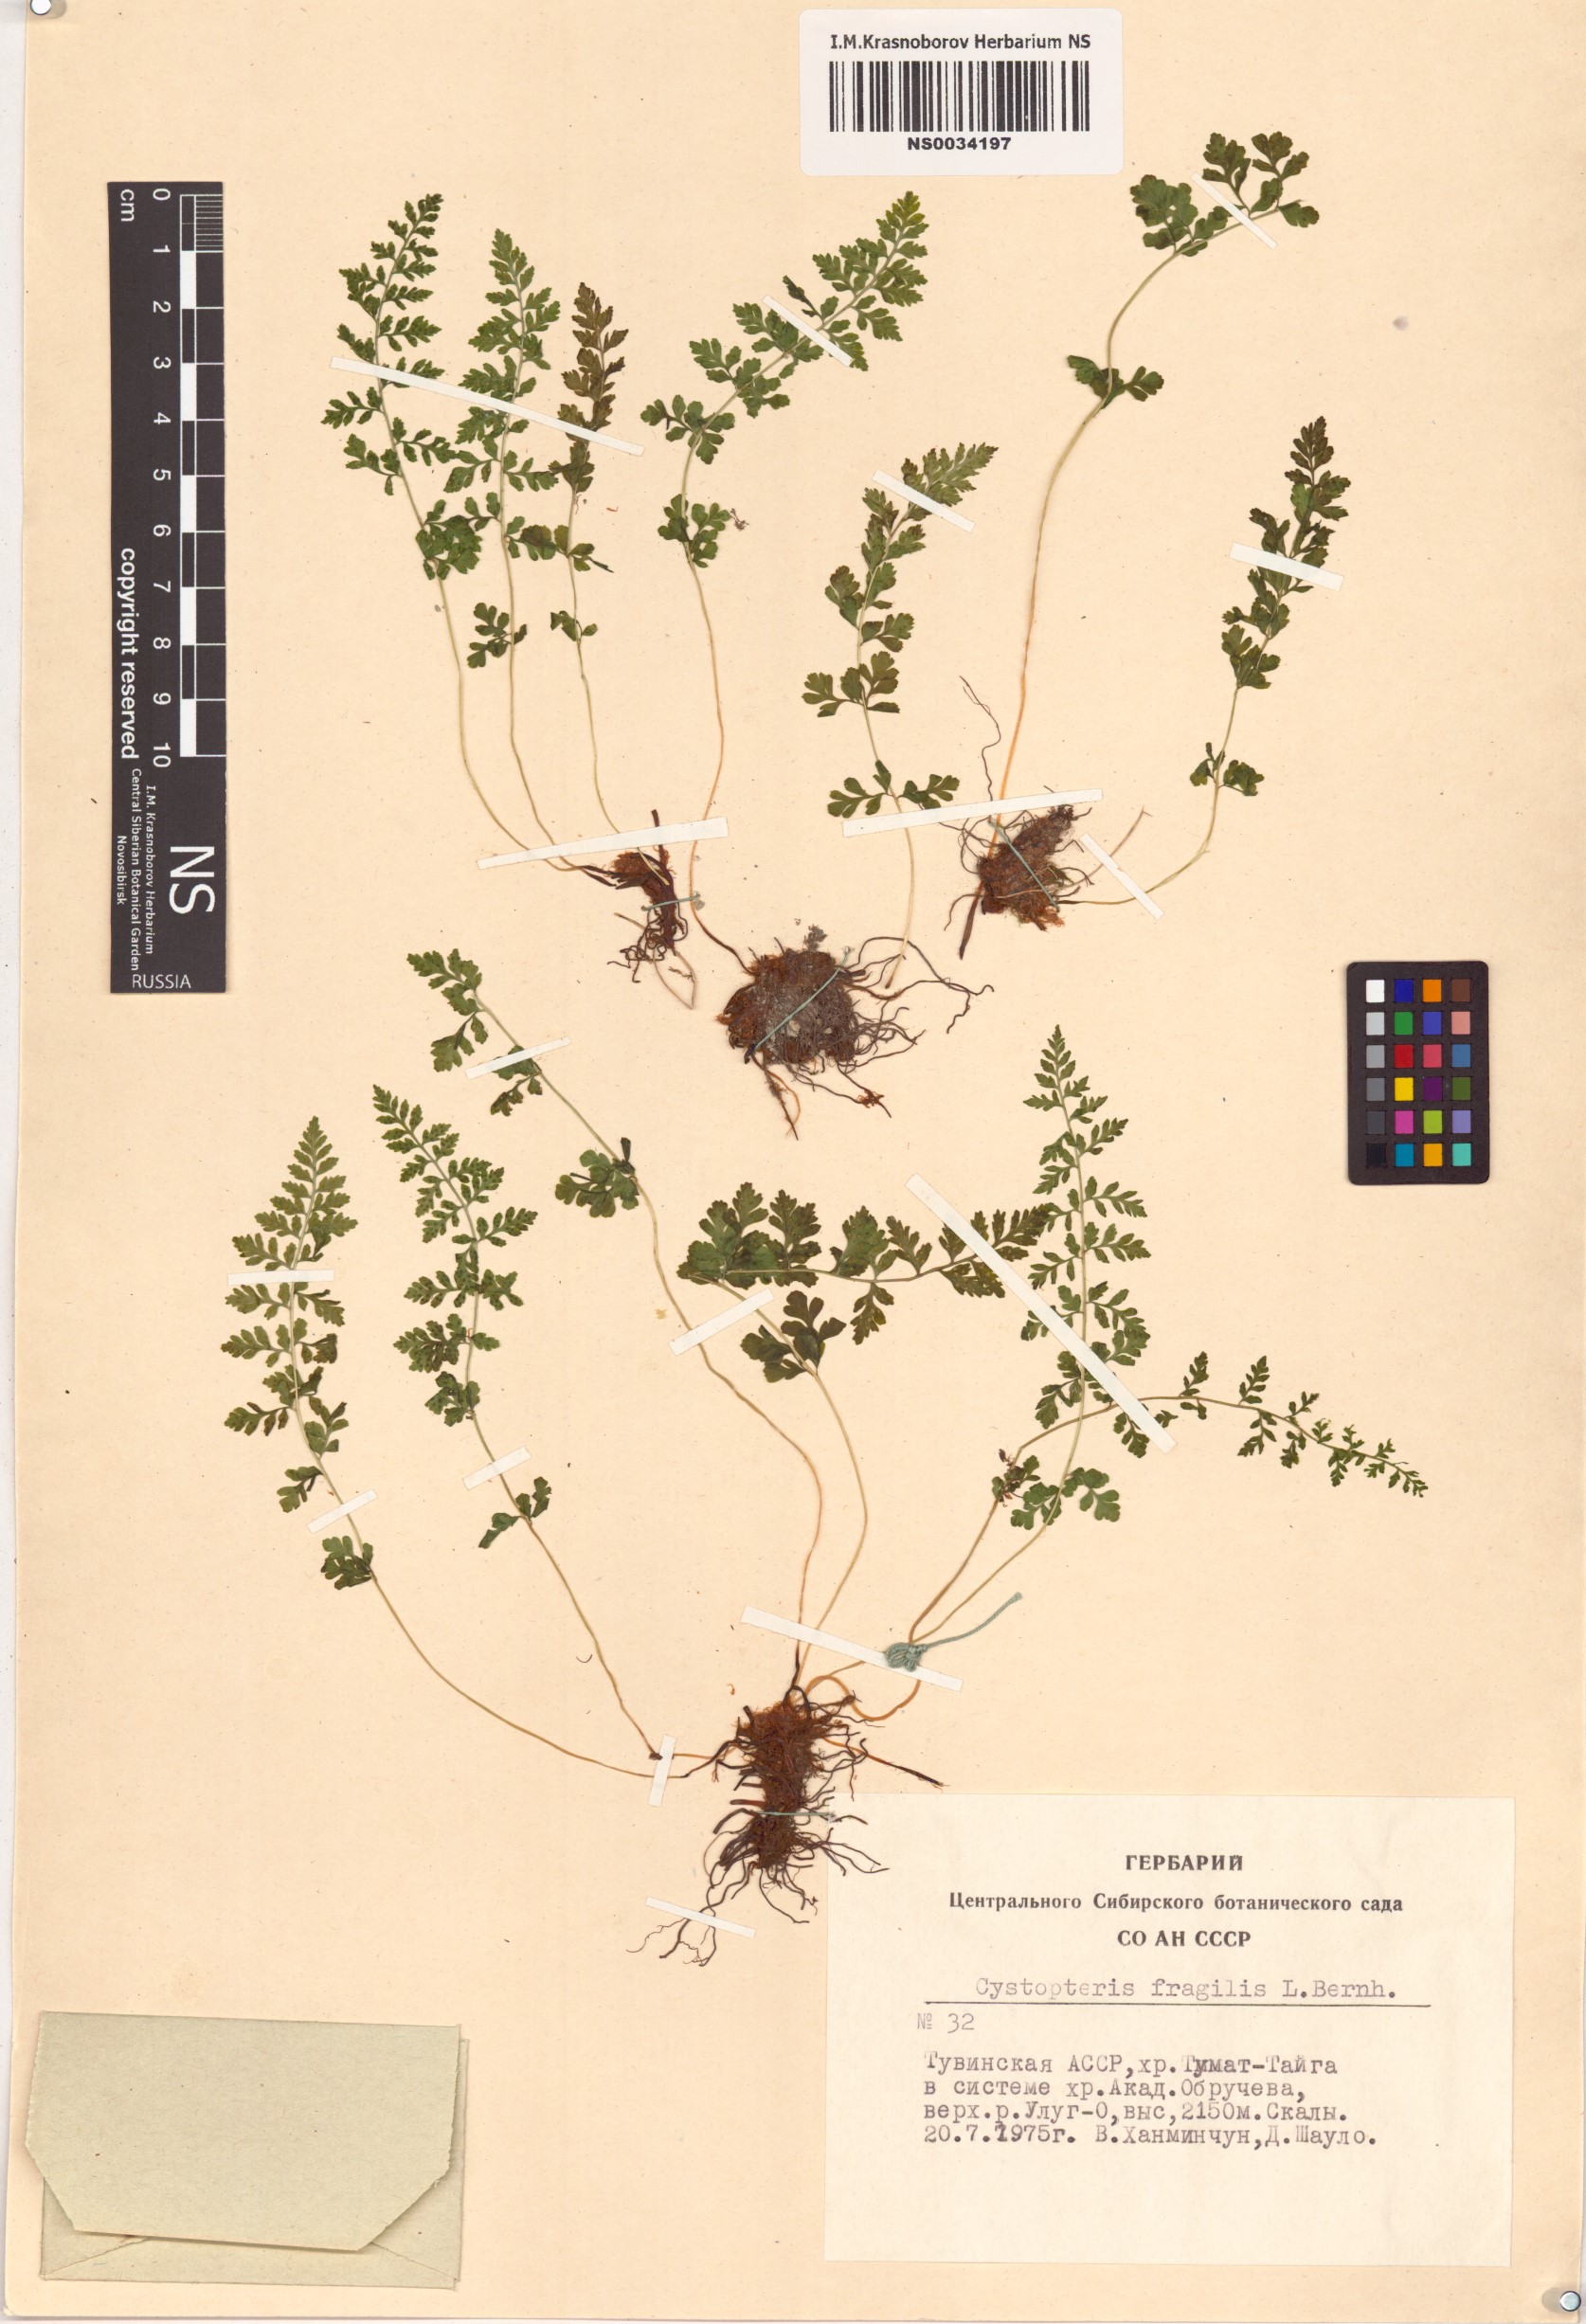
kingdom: Plantae
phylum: Tracheophyta
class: Polypodiopsida
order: Polypodiales
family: Cystopteridaceae
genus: Cystopteris
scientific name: Cystopteris fragilis
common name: Brittle bladder fern
